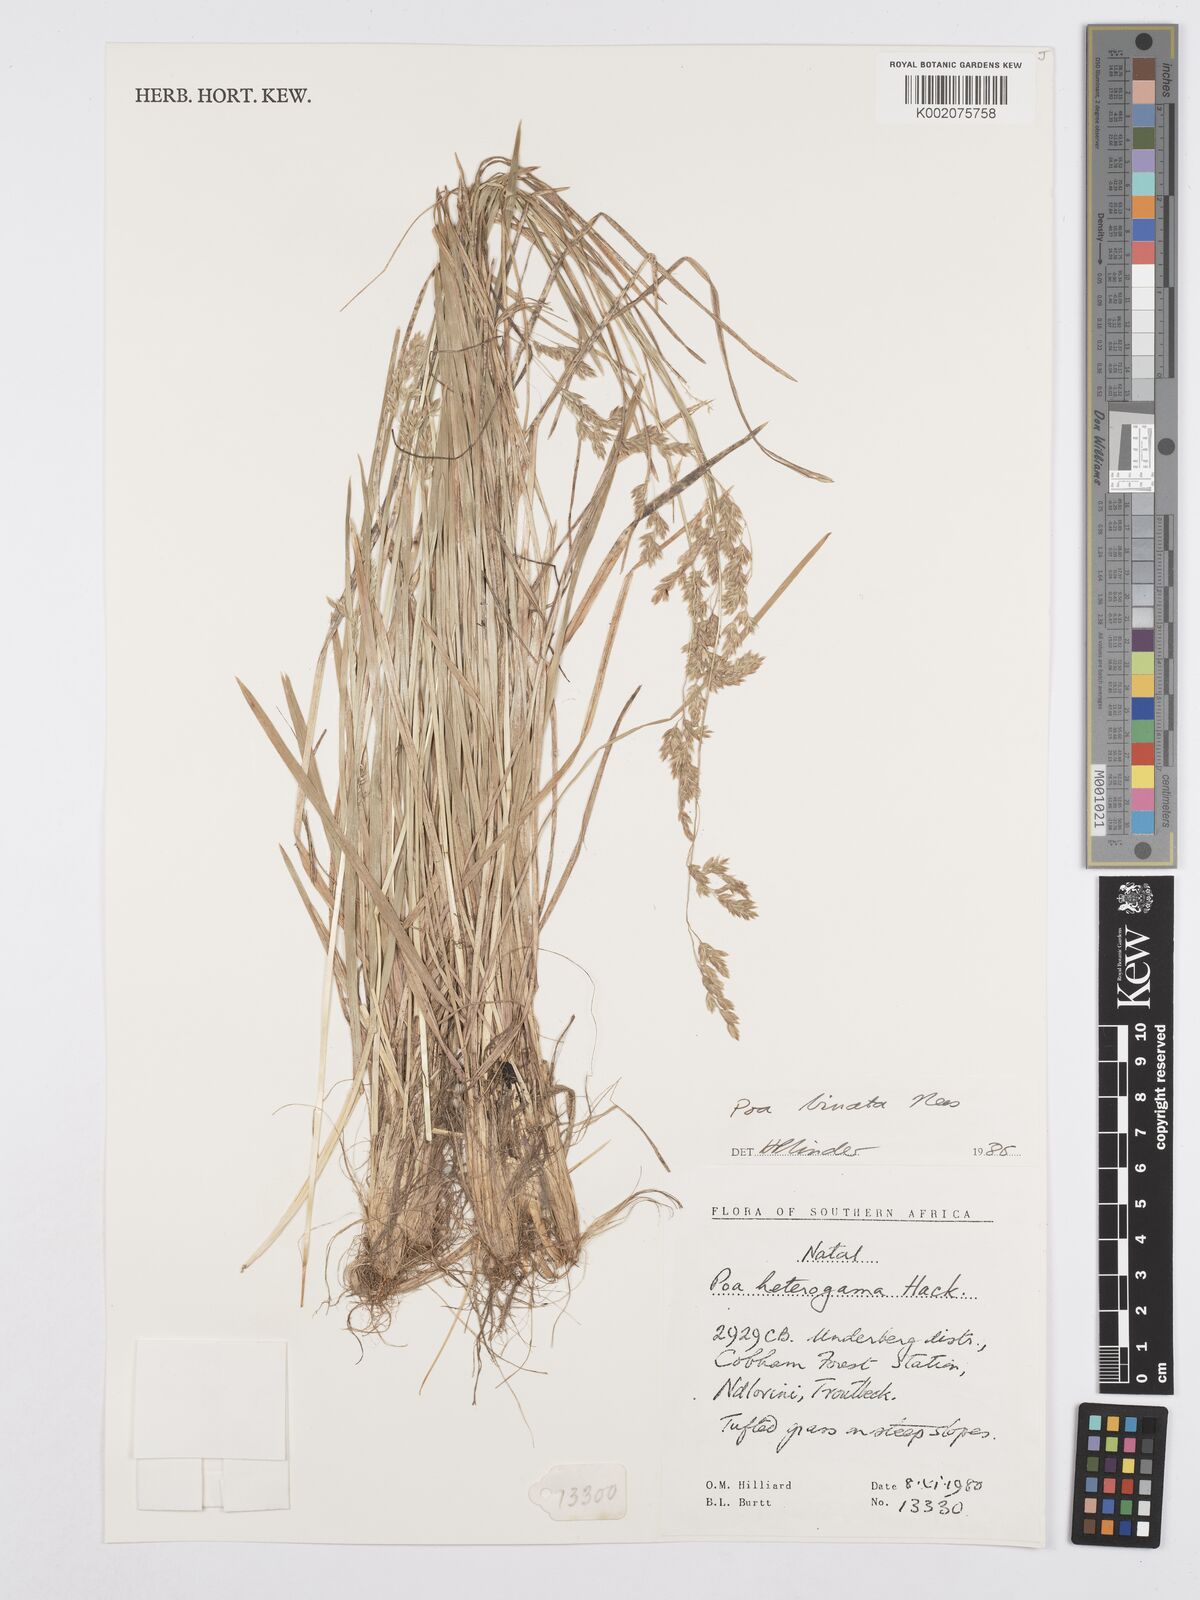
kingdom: Plantae
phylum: Tracheophyta
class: Liliopsida
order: Poales
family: Poaceae
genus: Poa
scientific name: Poa binata
